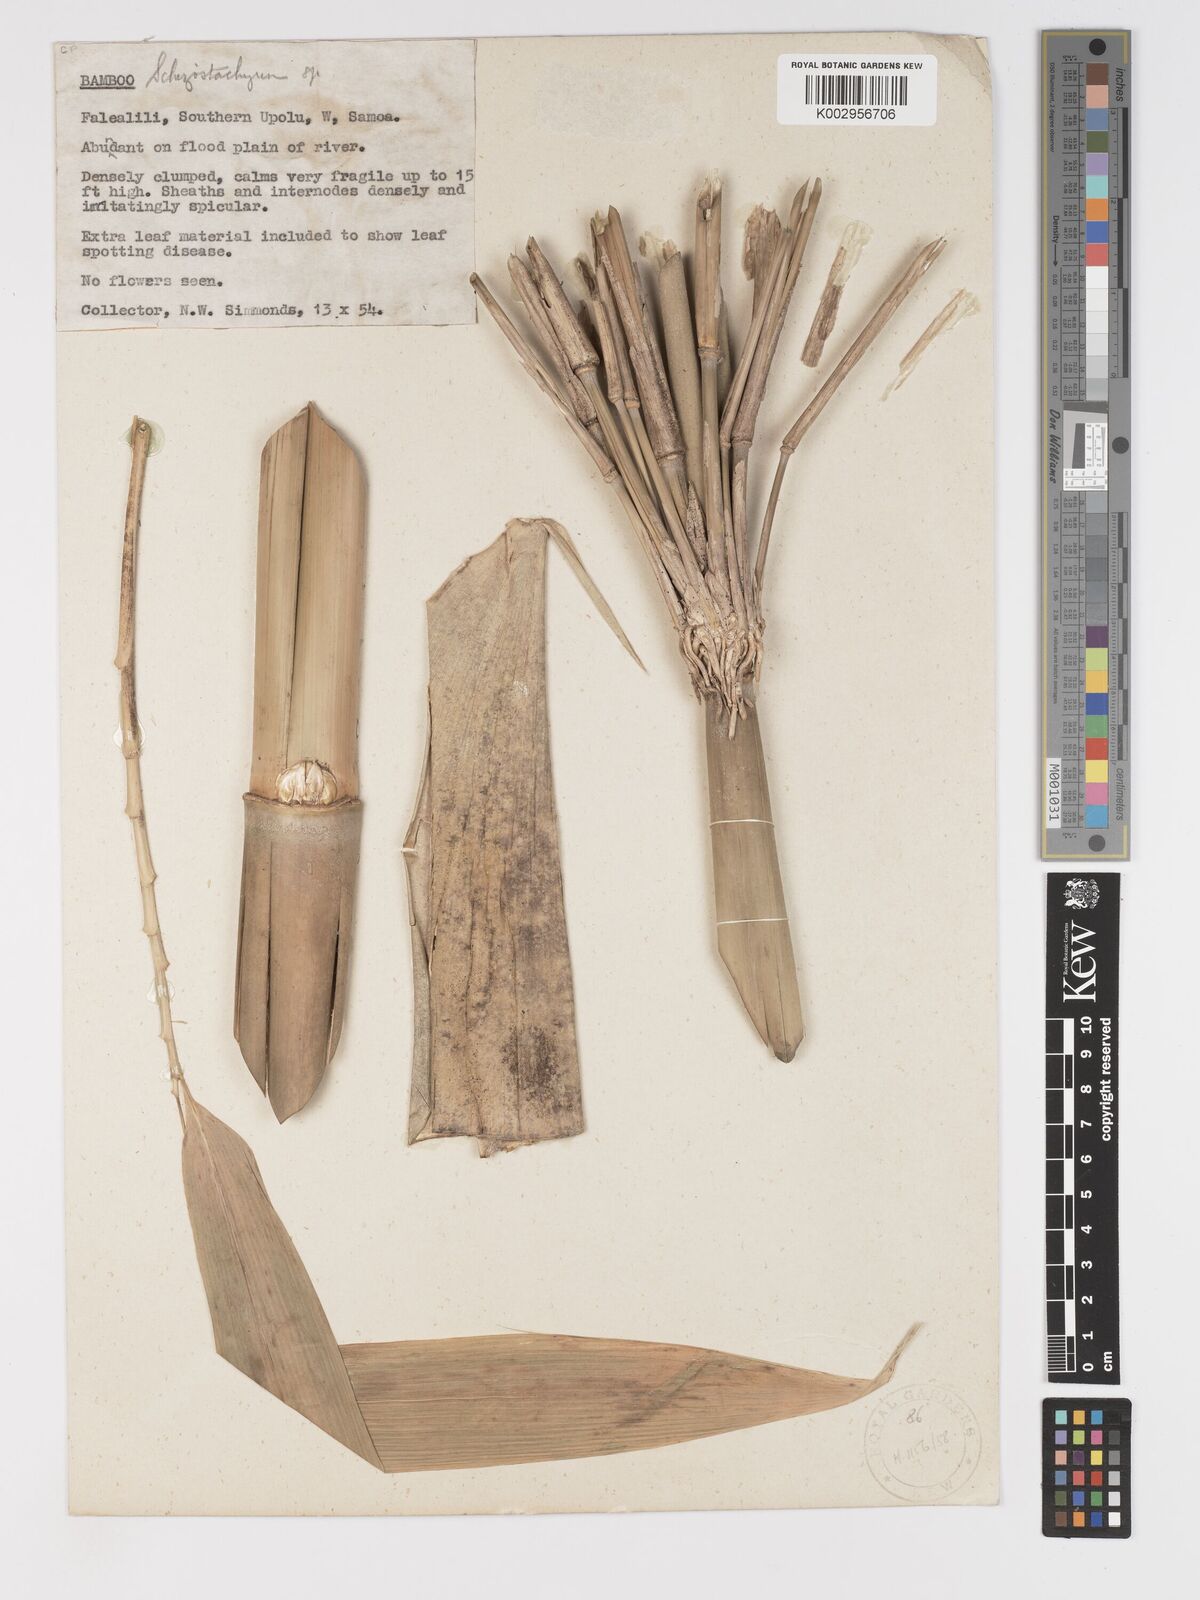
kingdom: Plantae
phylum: Tracheophyta
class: Liliopsida
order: Poales
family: Poaceae
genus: Schizostachyum
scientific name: Schizostachyum glaucifolium
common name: Polynesian 'ohe
